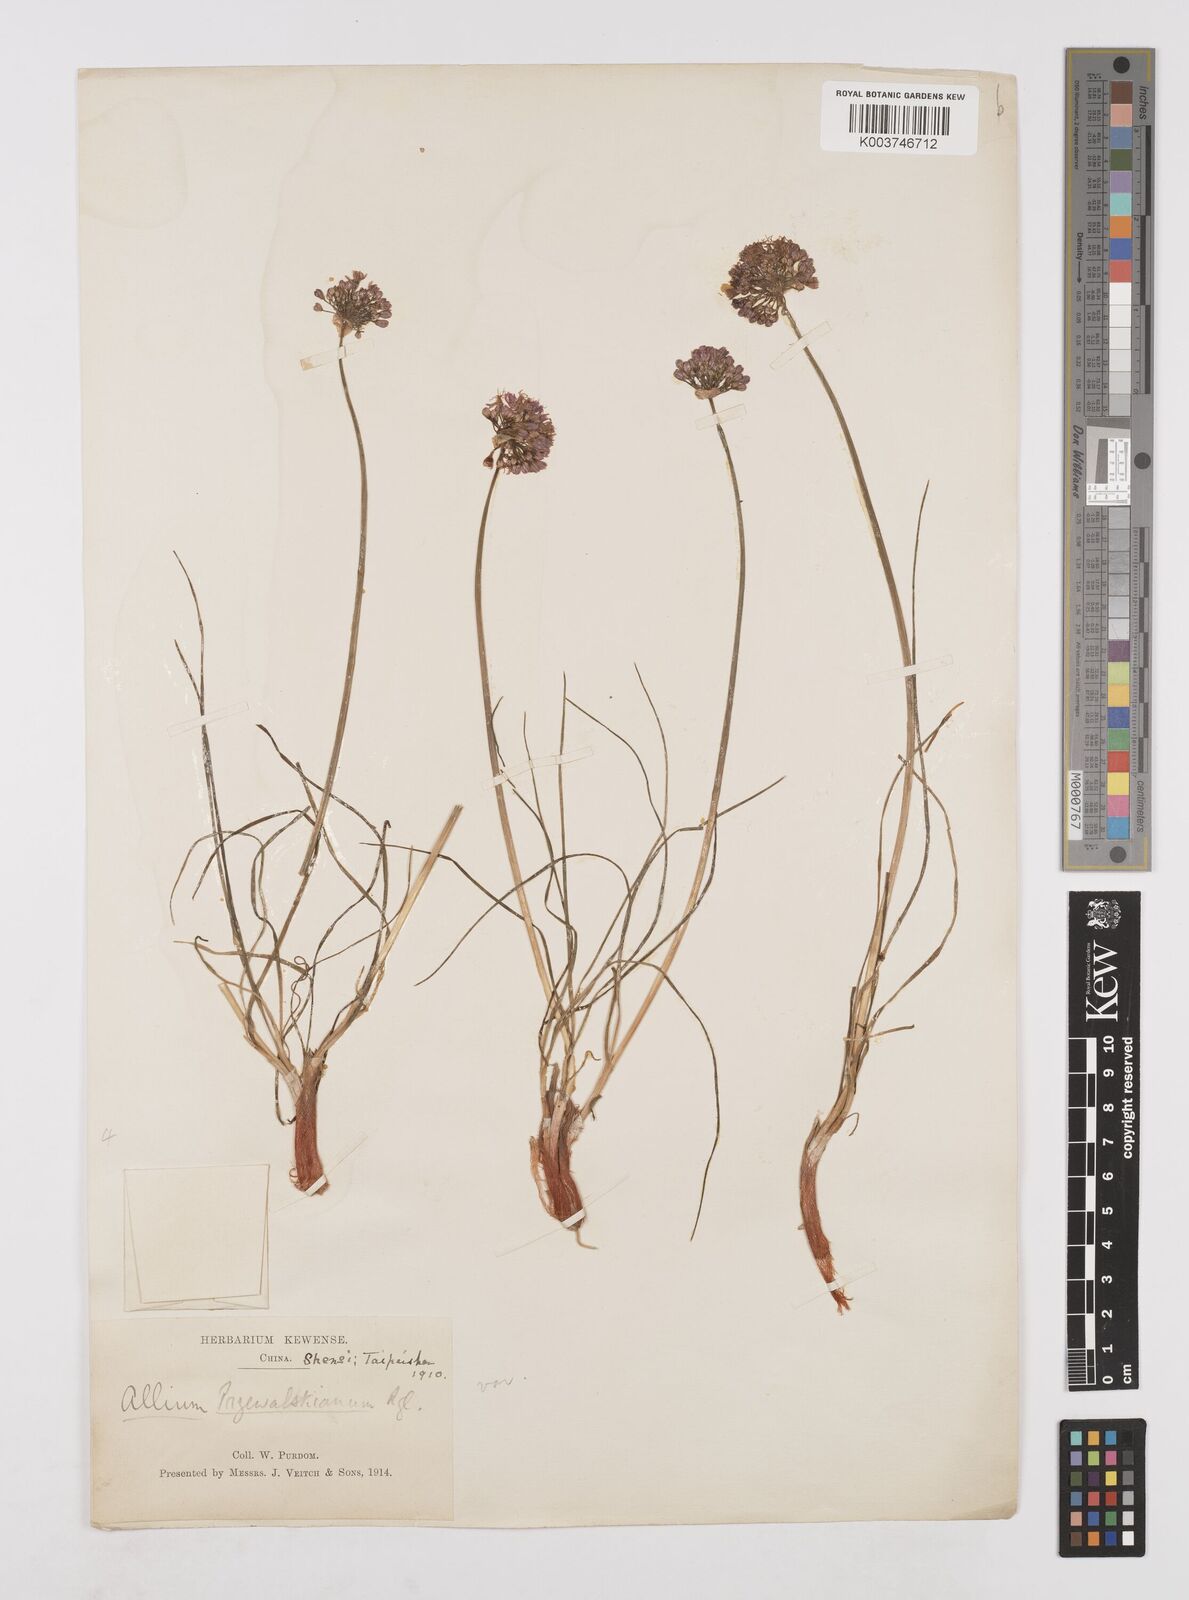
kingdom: Plantae
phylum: Tracheophyta
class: Liliopsida
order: Asparagales
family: Amaryllidaceae
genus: Allium
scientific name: Allium przewalskianum
